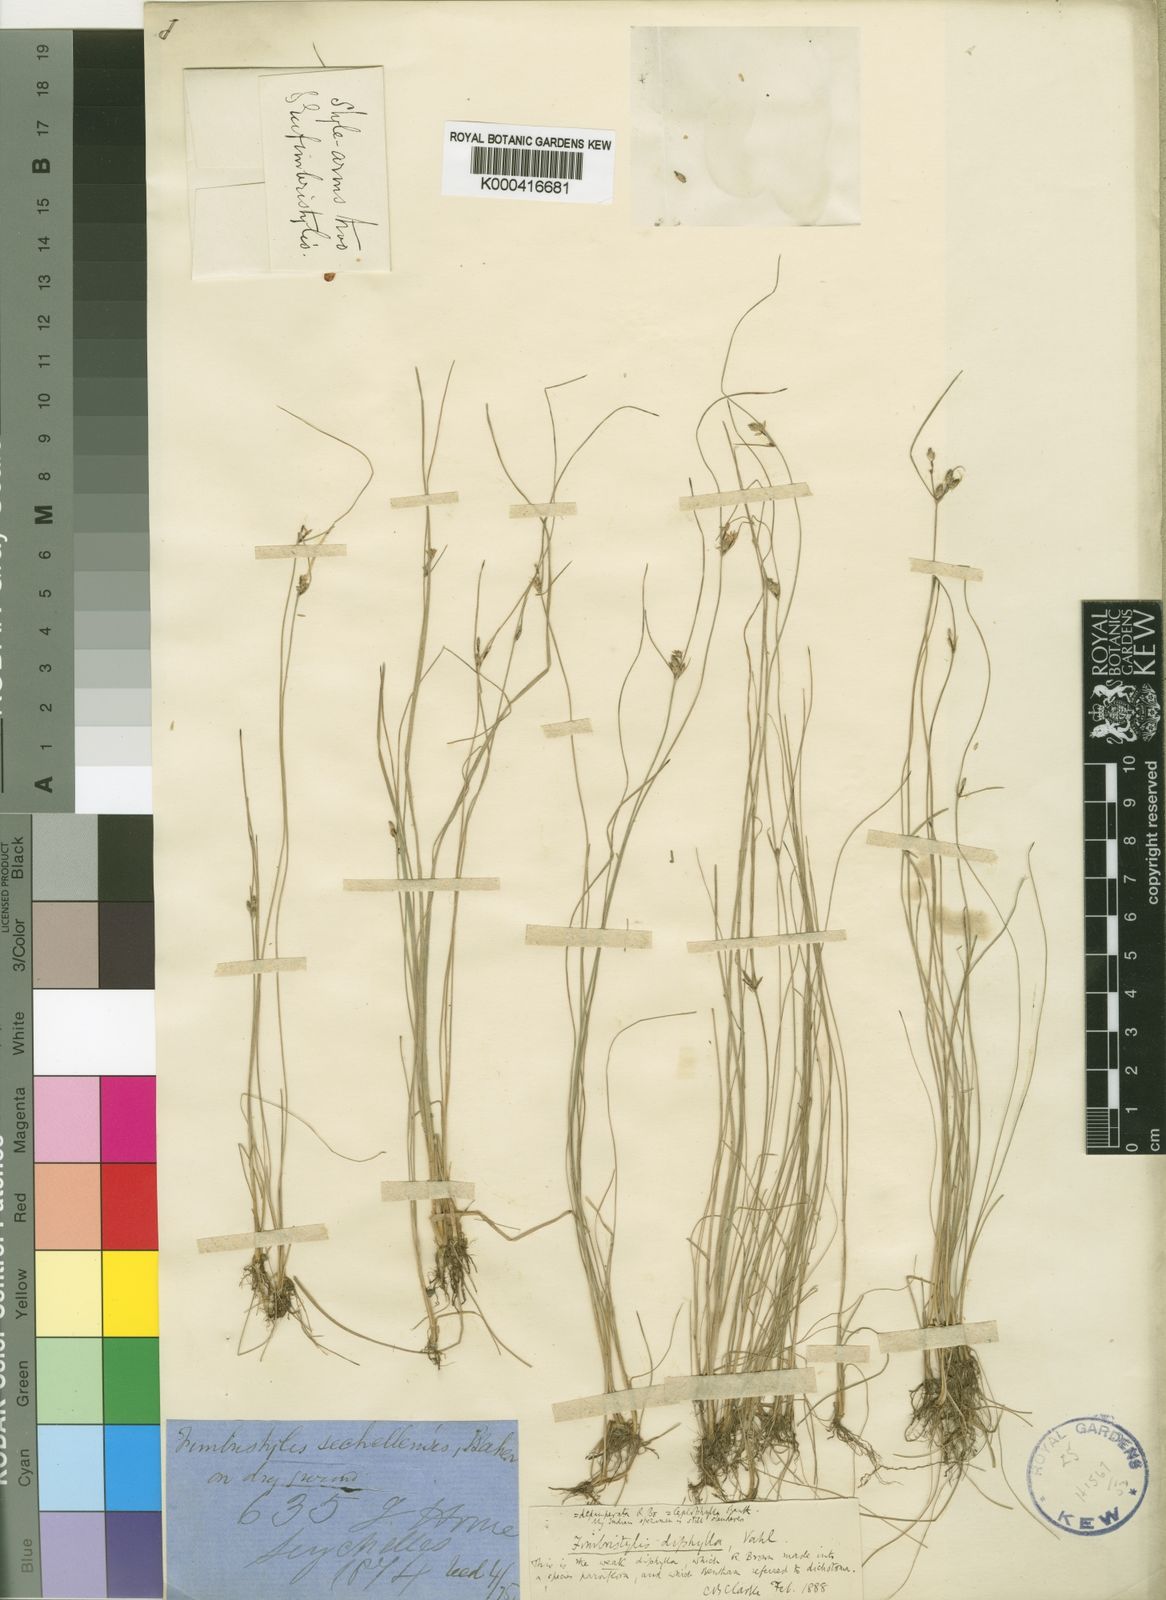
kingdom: Plantae
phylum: Tracheophyta
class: Liliopsida
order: Poales
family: Cyperaceae
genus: Fimbristylis
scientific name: Fimbristylis dichotoma
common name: Forked fimbry
